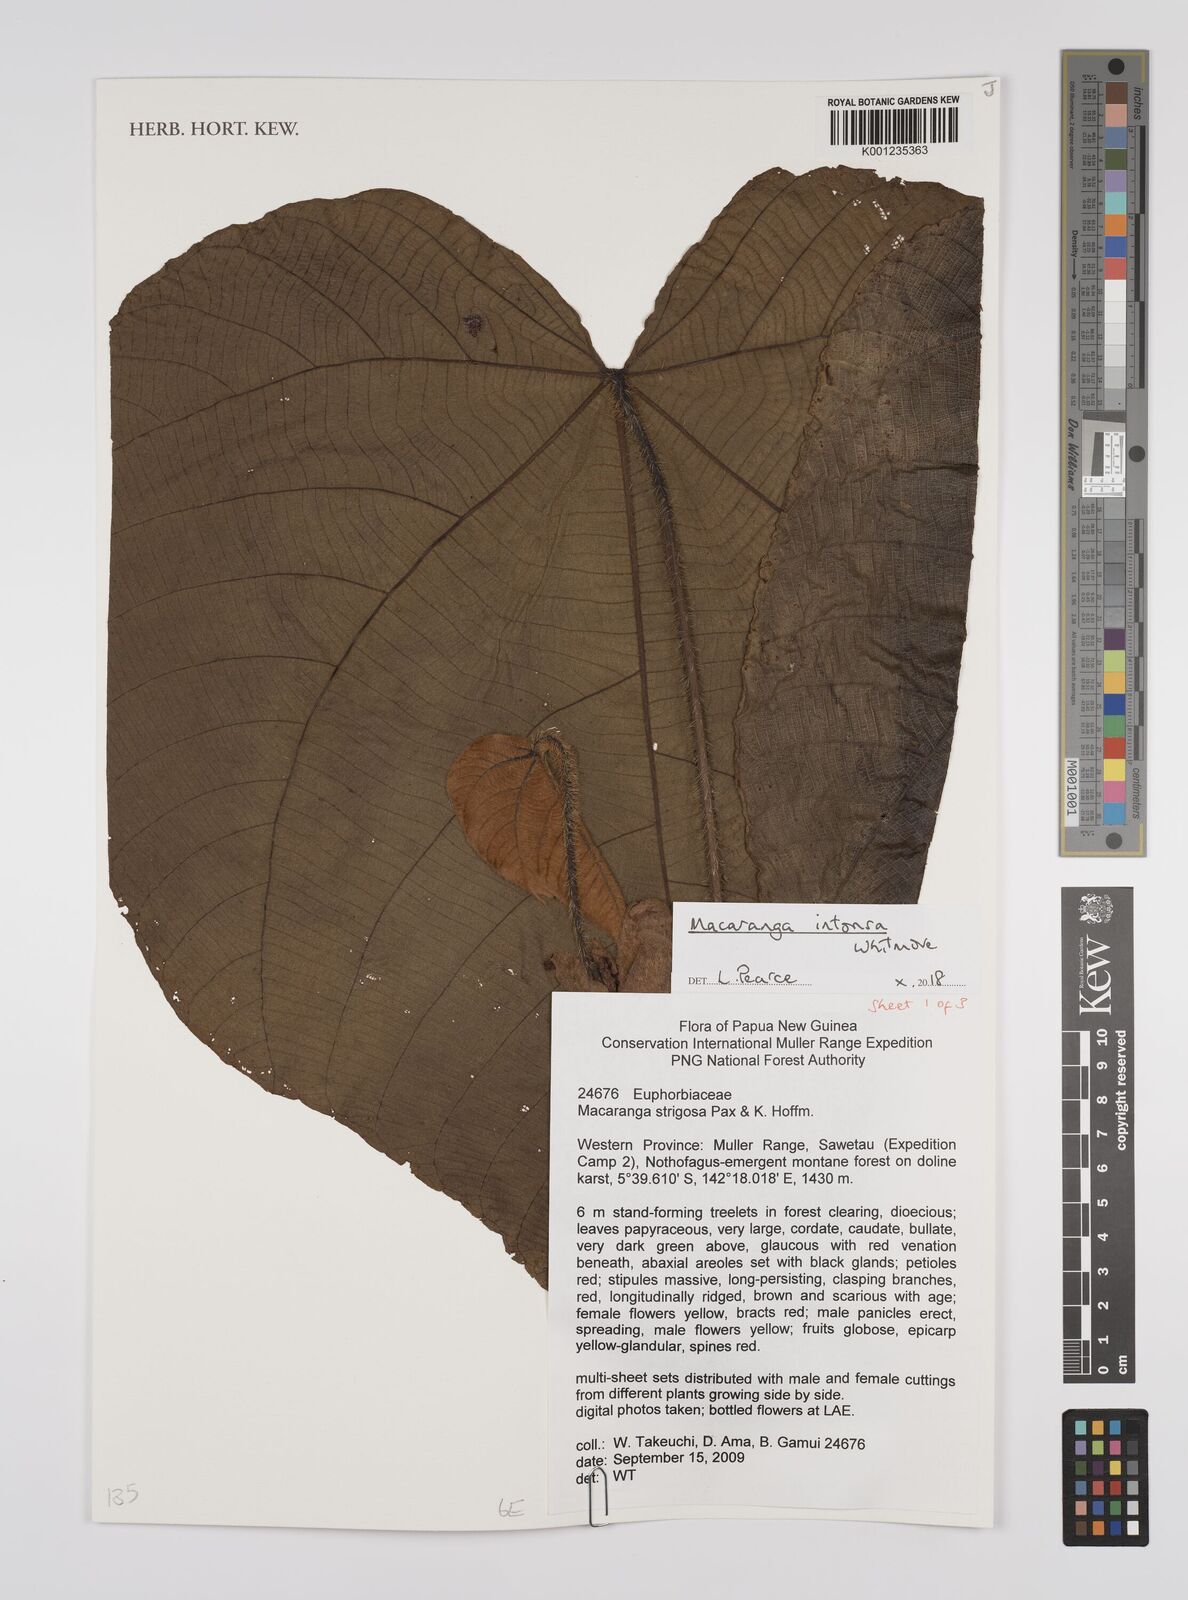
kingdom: Plantae
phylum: Tracheophyta
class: Magnoliopsida
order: Malpighiales
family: Euphorbiaceae
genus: Macaranga
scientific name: Macaranga intonsa
